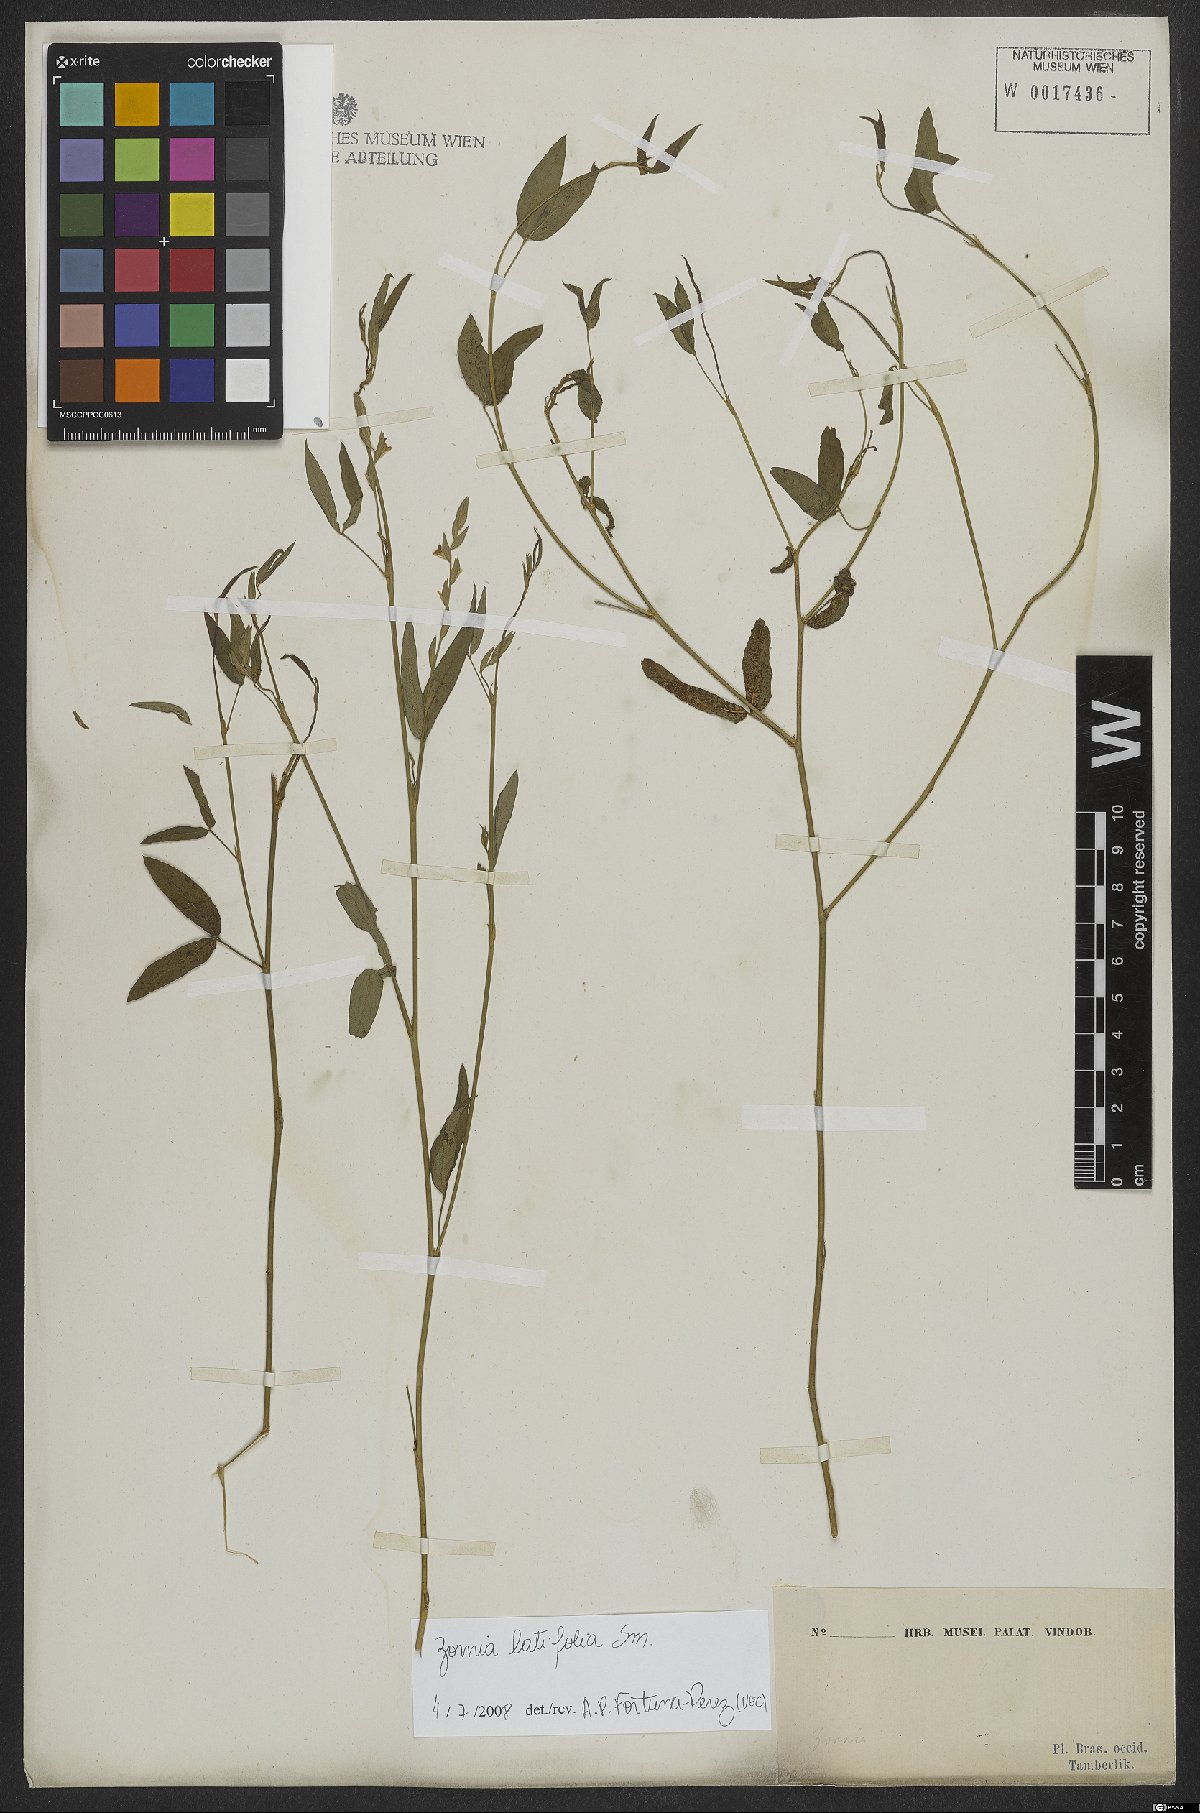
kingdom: Plantae
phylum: Tracheophyta
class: Magnoliopsida
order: Fabales
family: Fabaceae
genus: Zornia
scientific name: Zornia sericea
